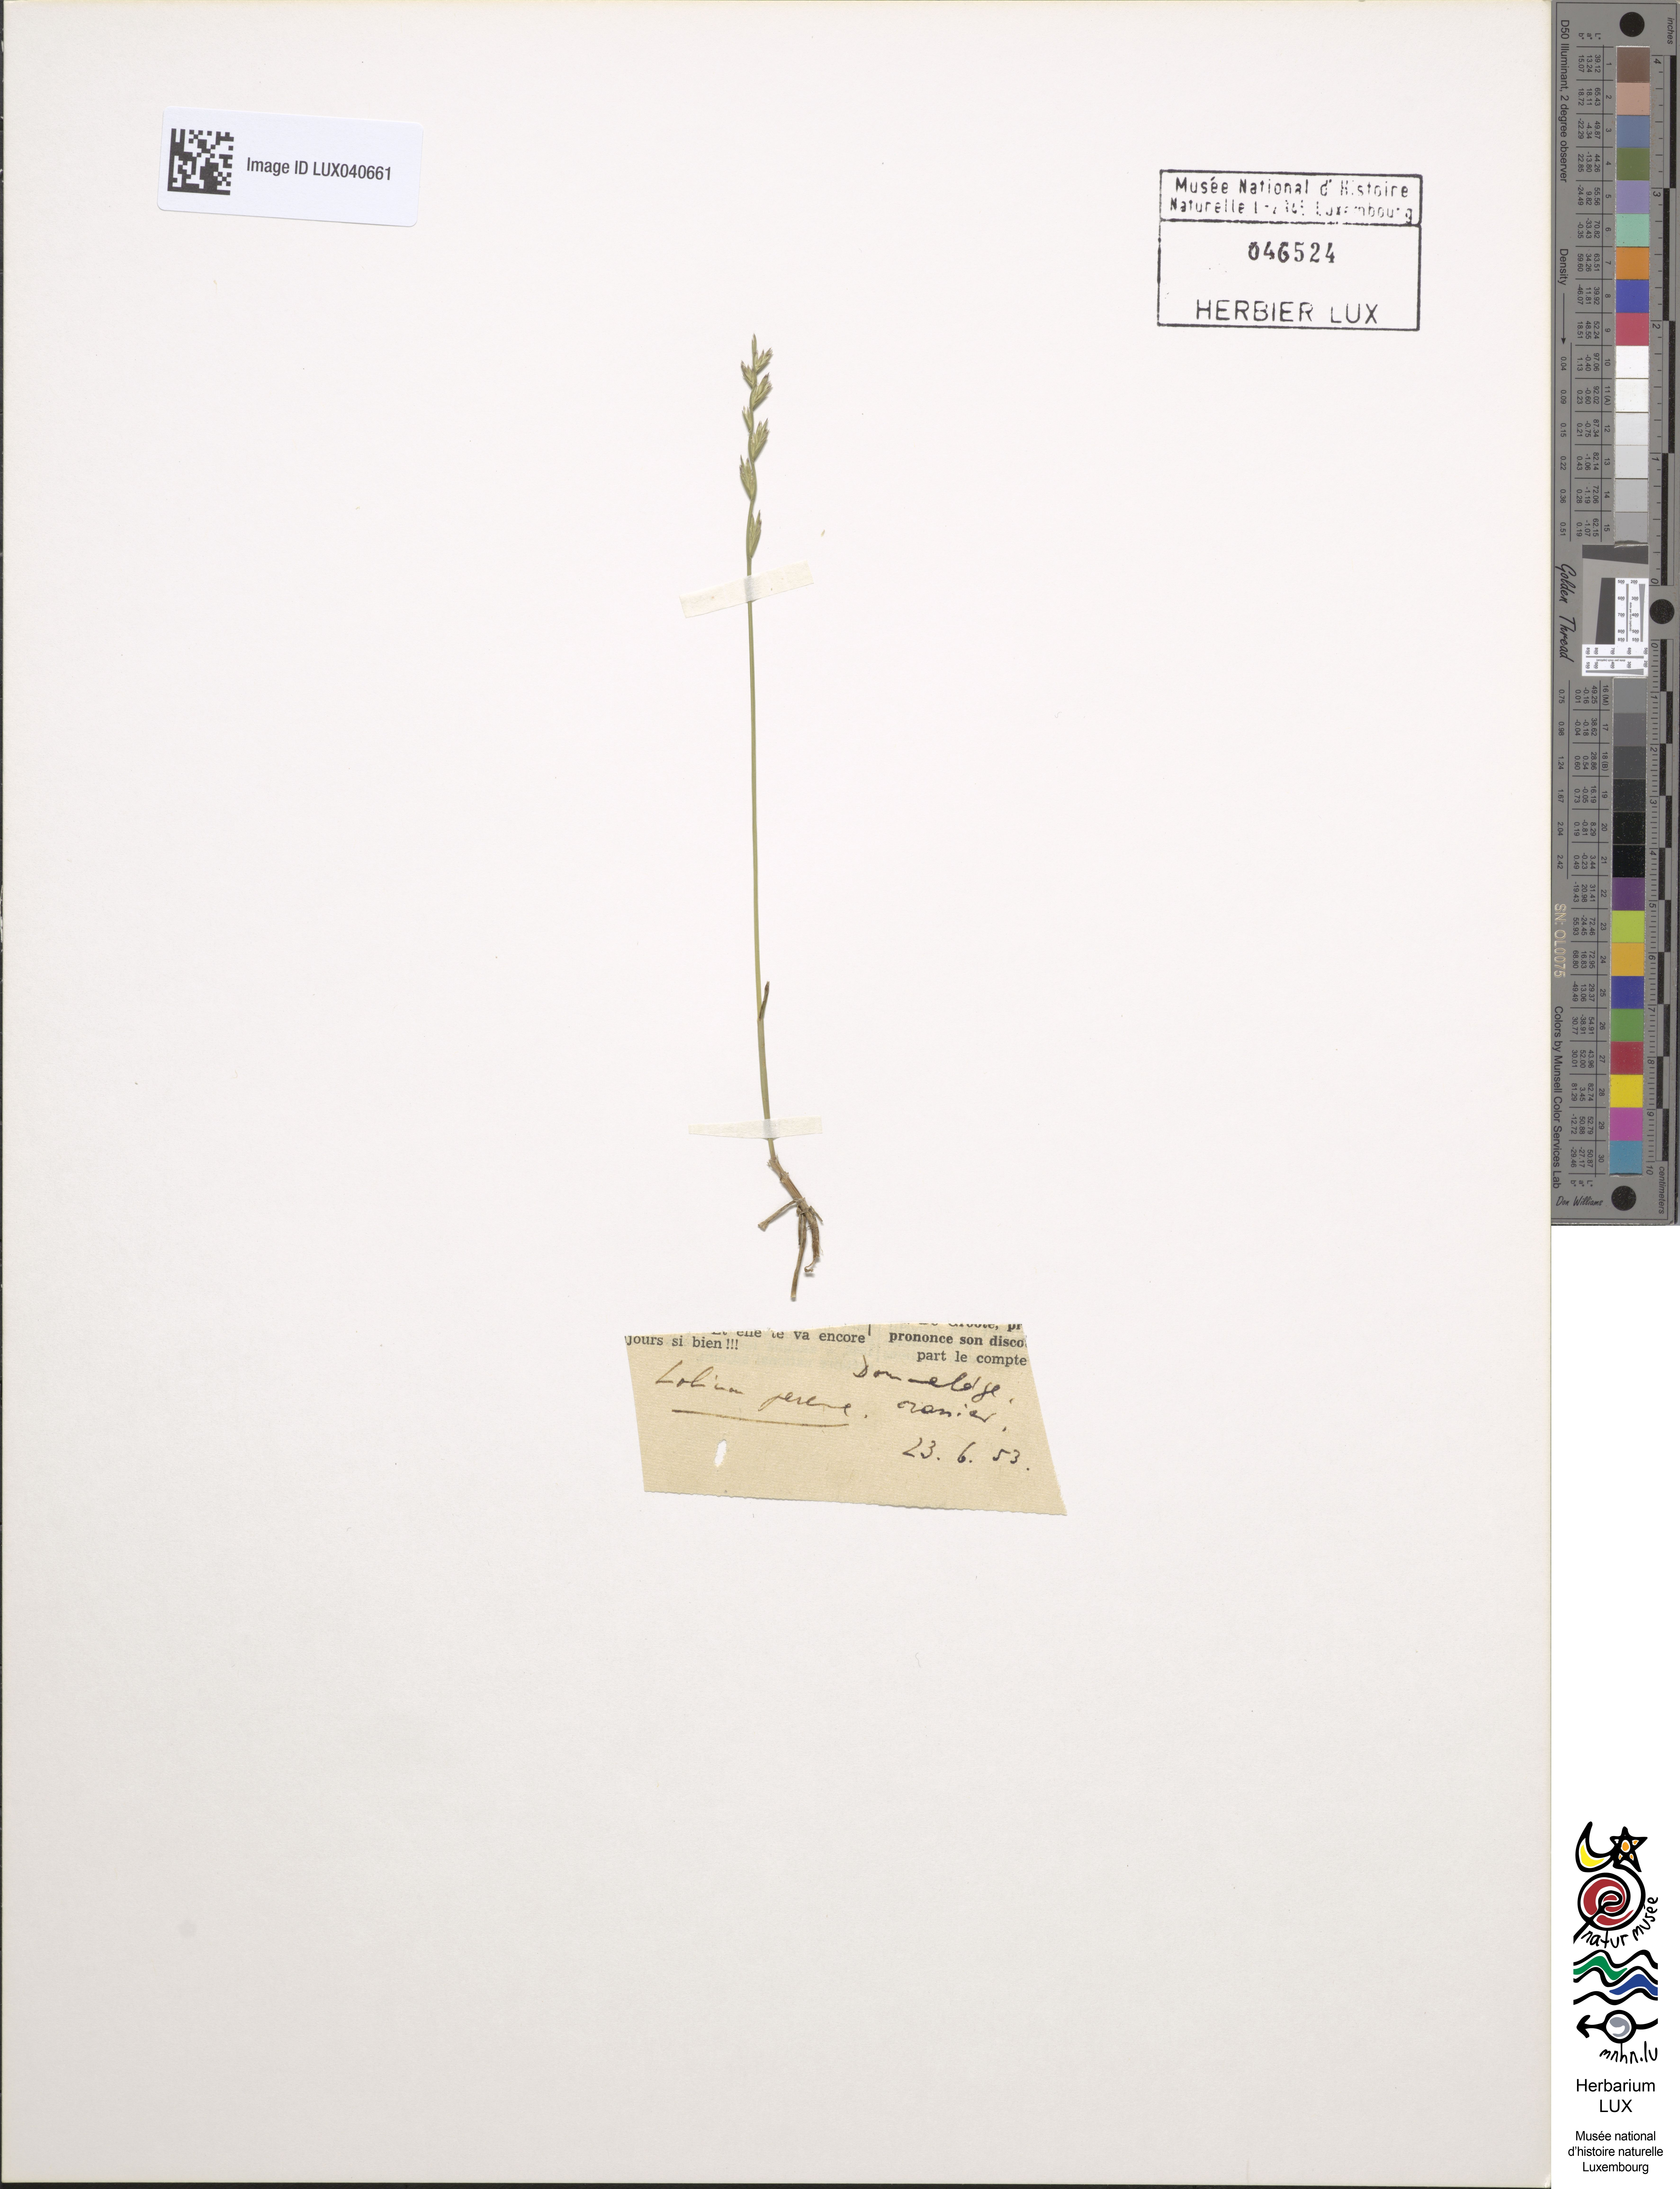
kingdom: Plantae
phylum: Tracheophyta
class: Liliopsida
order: Poales
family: Poaceae
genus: Lolium
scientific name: Lolium perenne
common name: Perennial ryegrass
